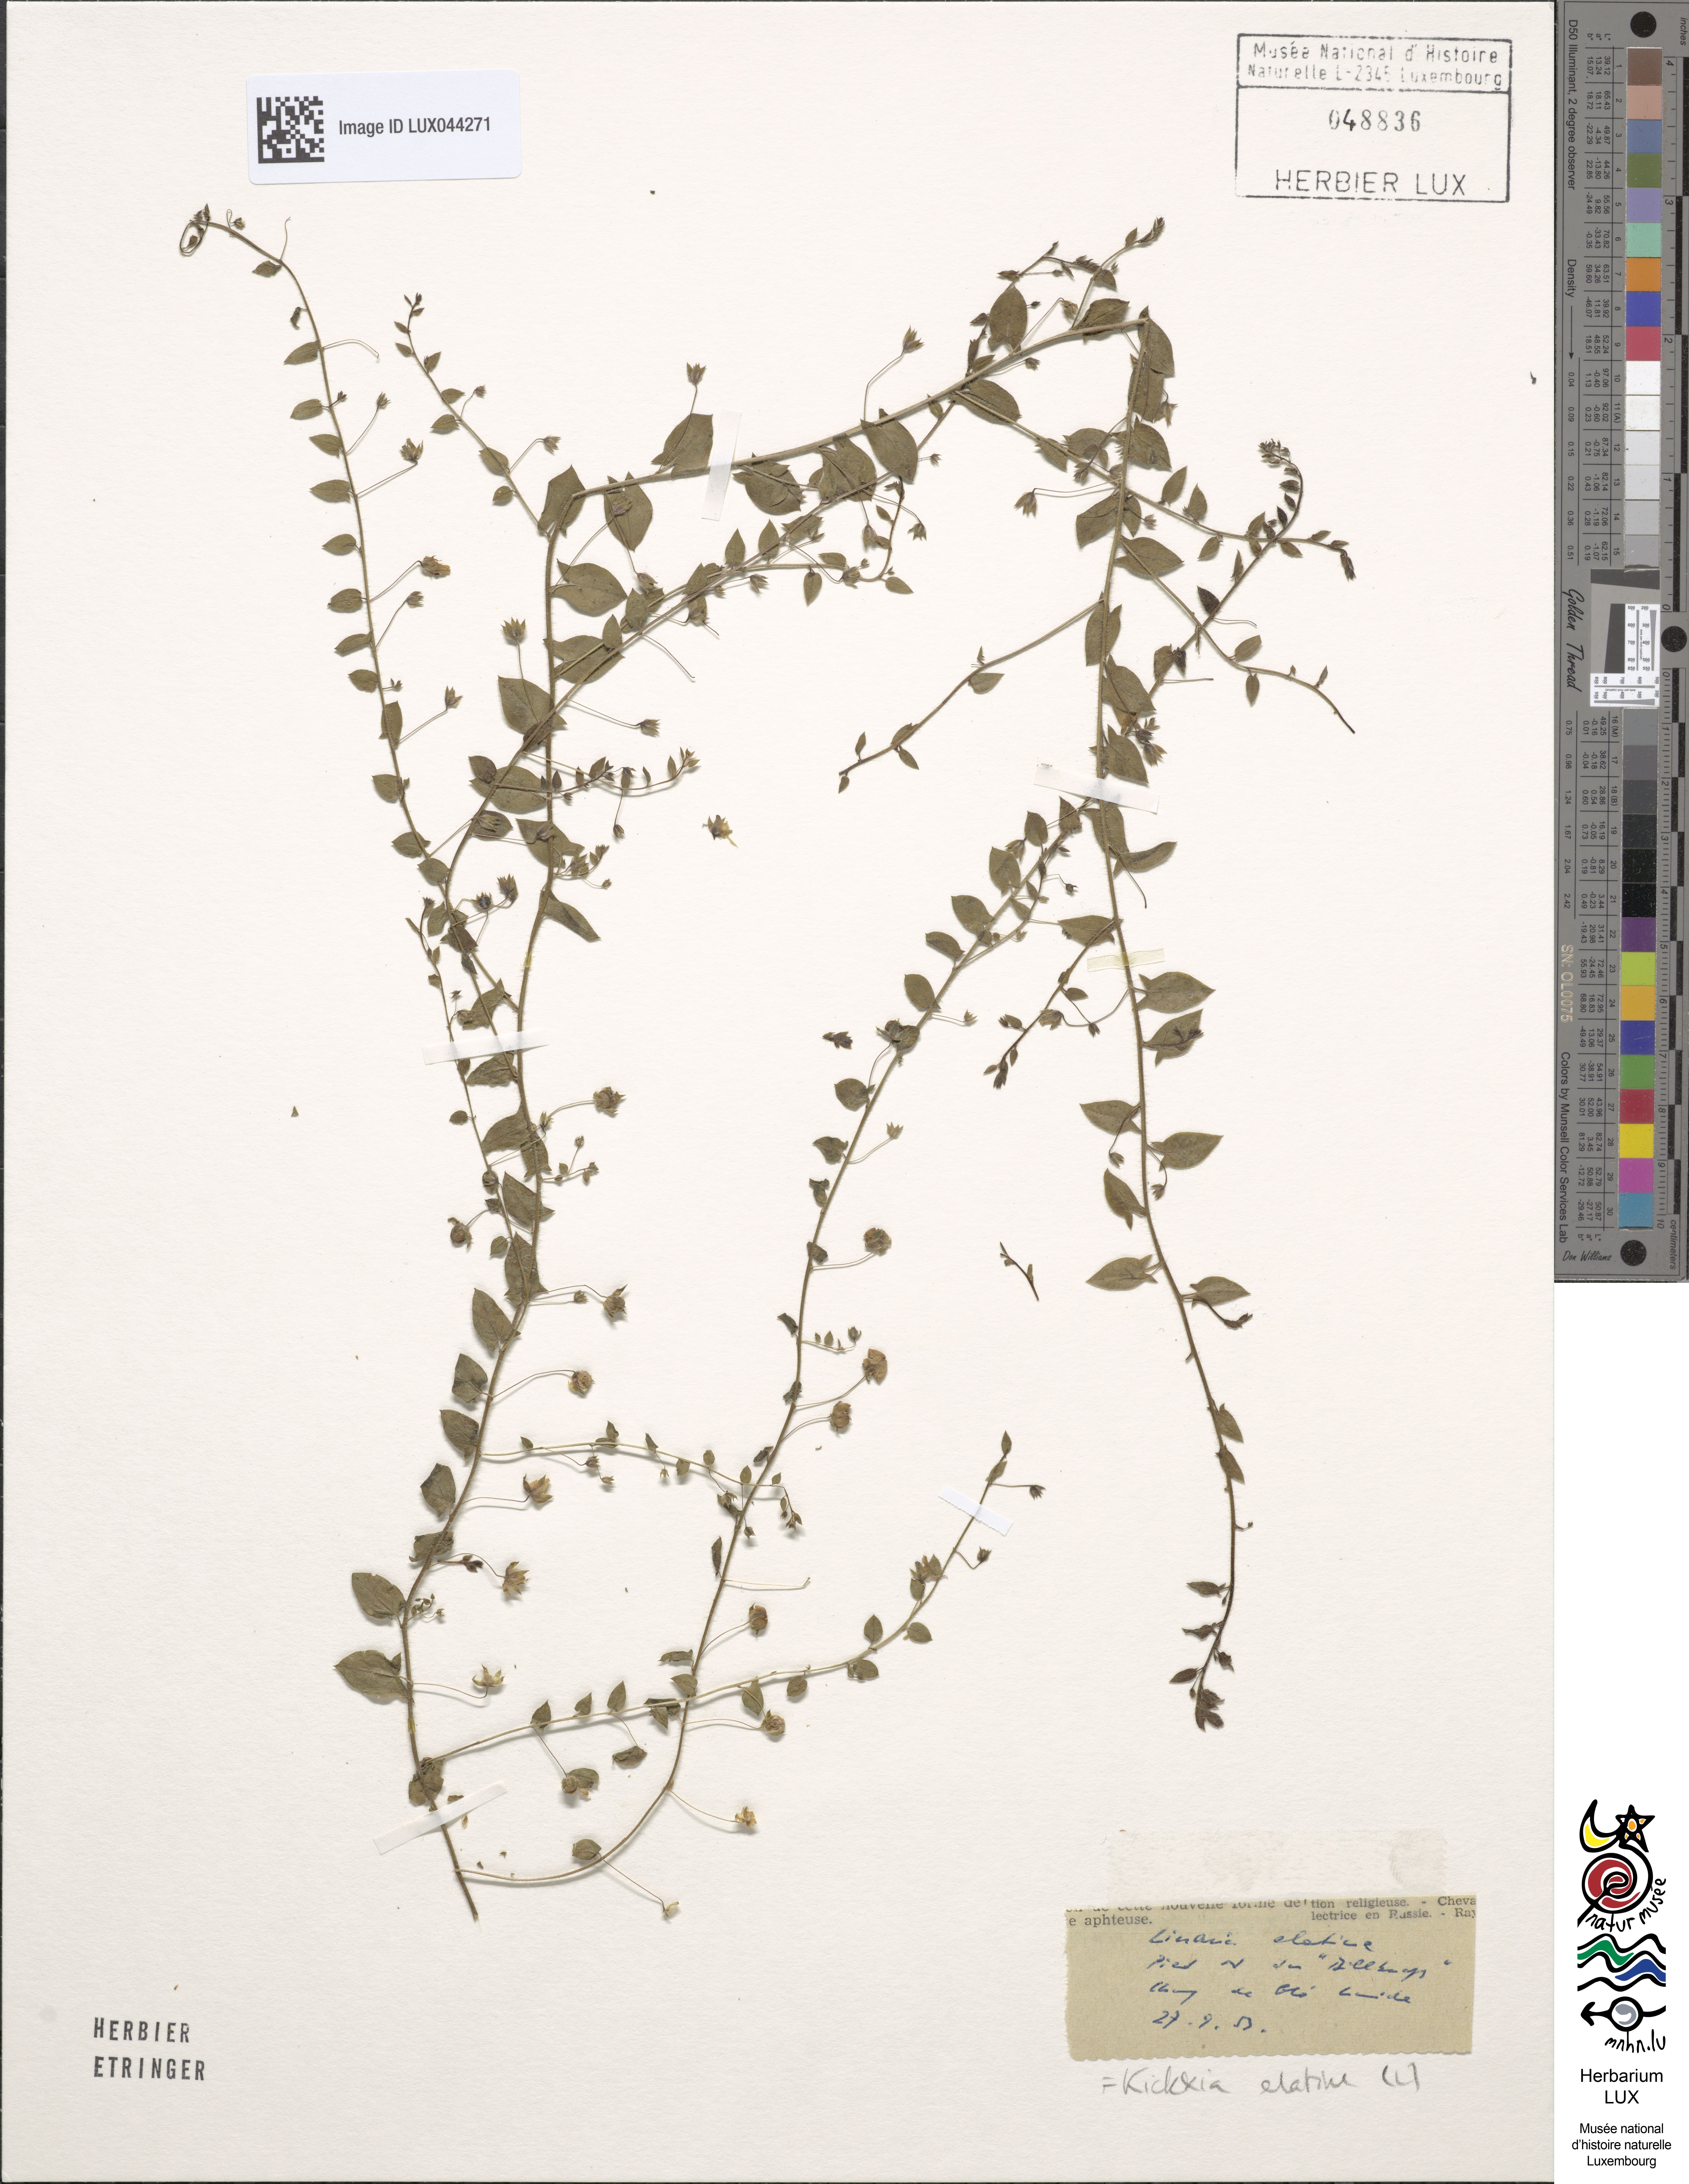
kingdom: Plantae
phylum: Tracheophyta
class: Magnoliopsida
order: Lamiales
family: Plantaginaceae
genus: Kickxia
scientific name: Kickxia elatine
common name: Sharp-leaved fluellen
